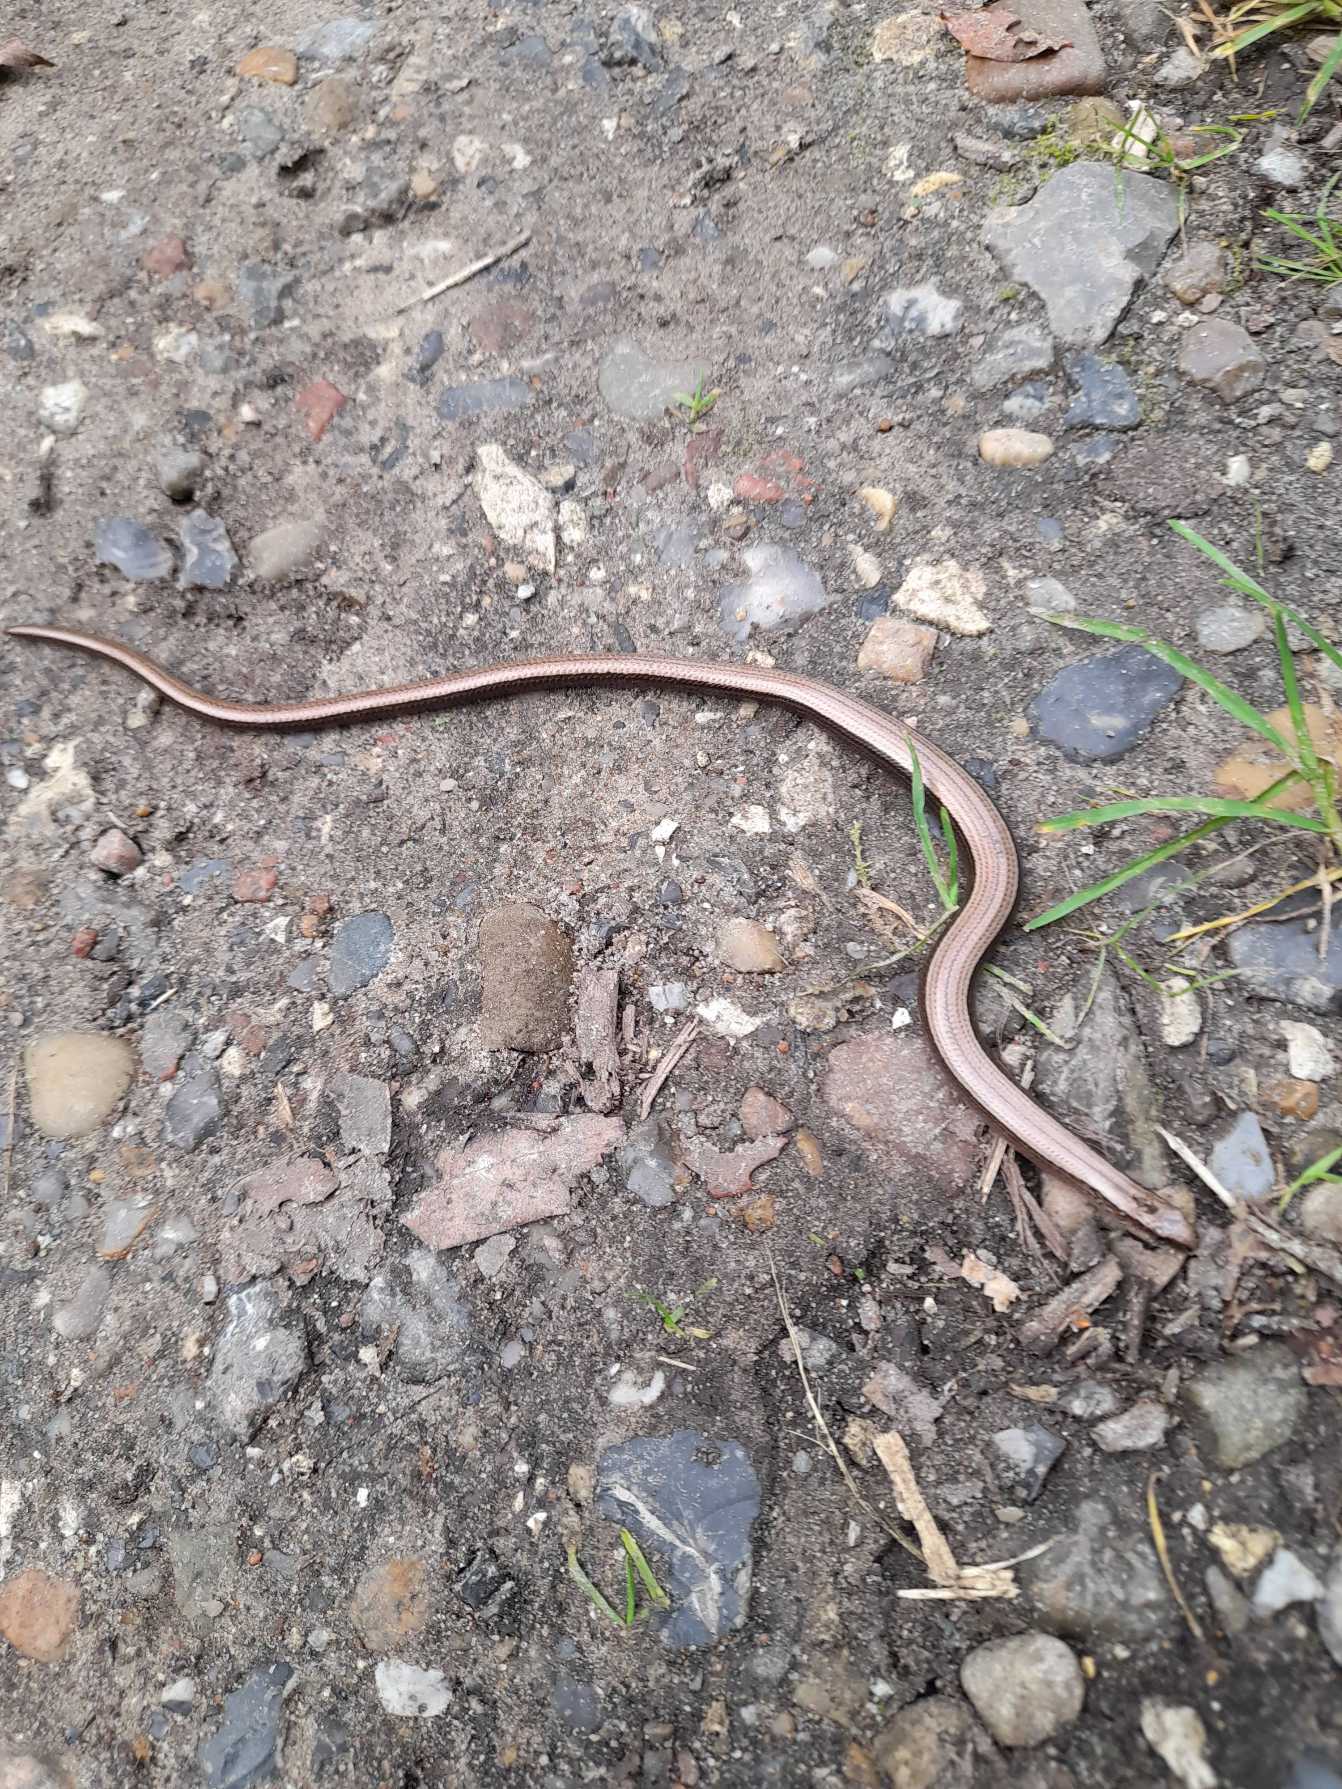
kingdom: Animalia
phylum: Chordata
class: Squamata
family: Anguidae
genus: Anguis
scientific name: Anguis fragilis
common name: Stålorm
